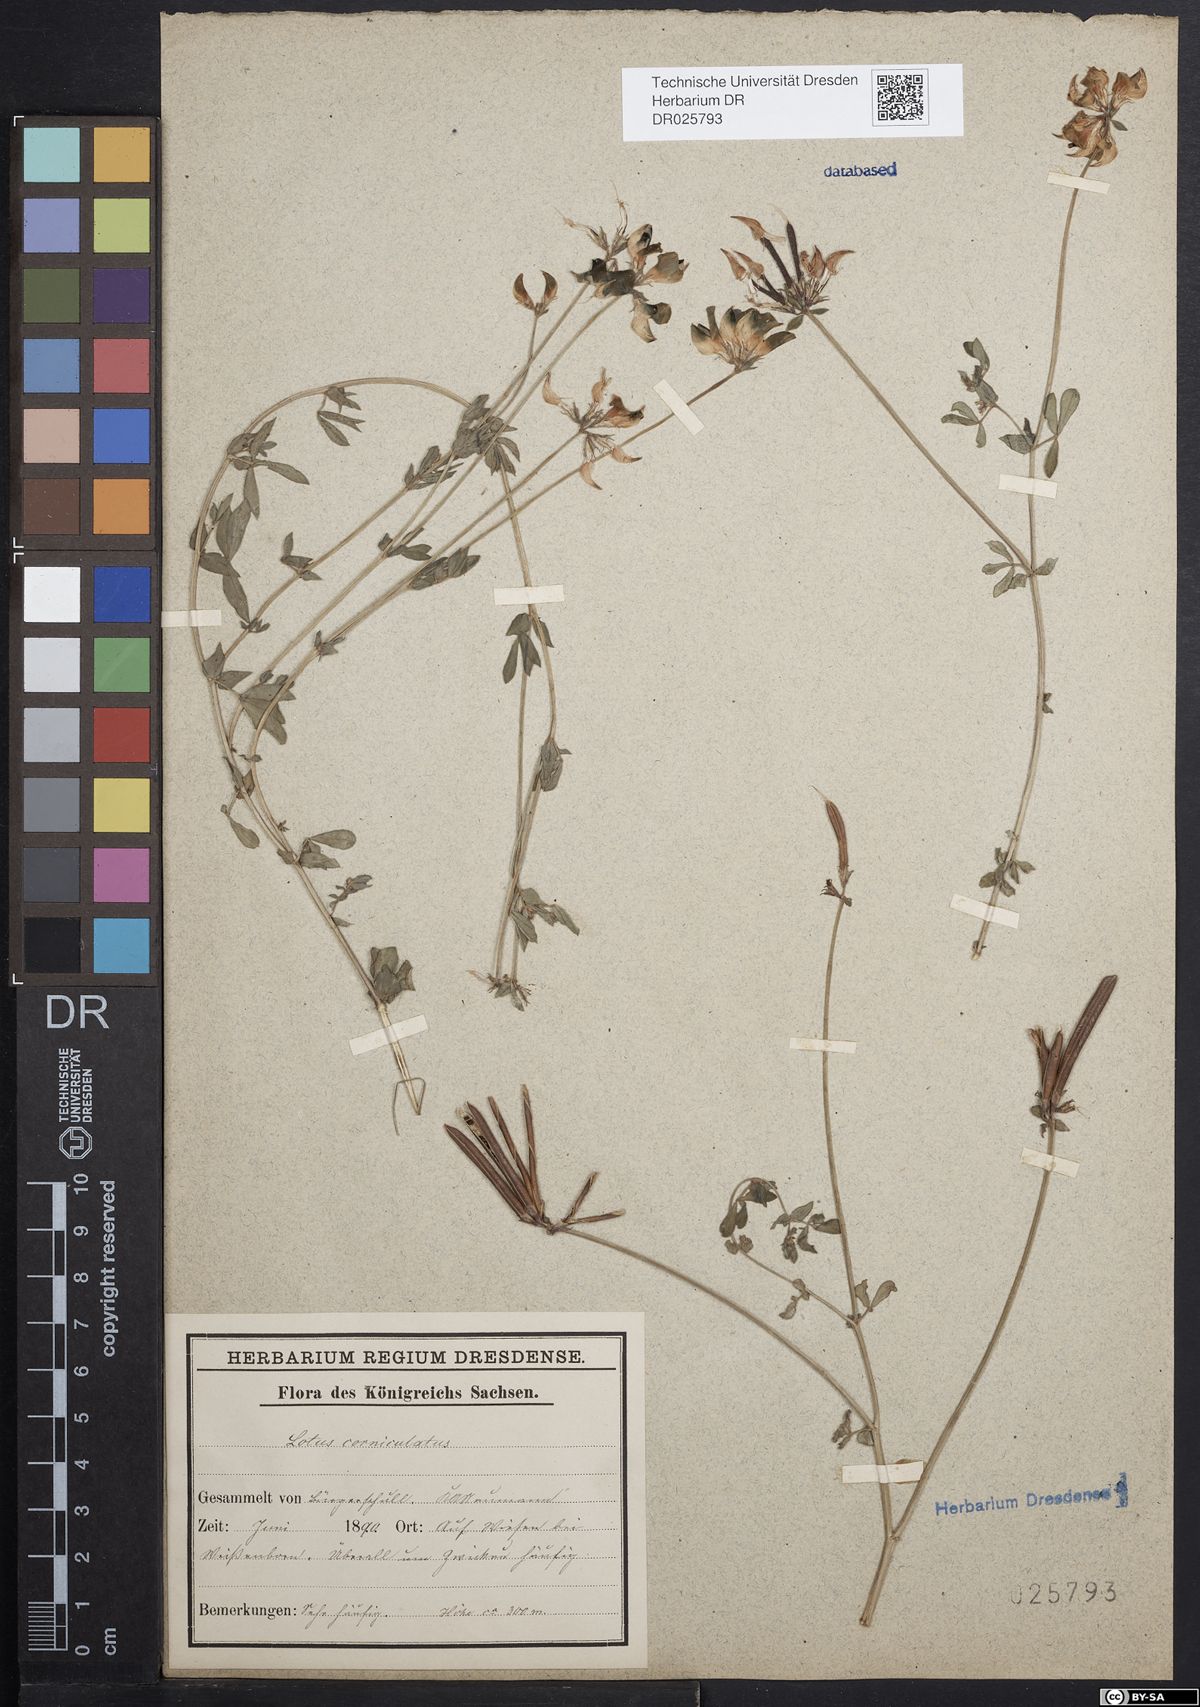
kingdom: Plantae
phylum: Tracheophyta
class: Magnoliopsida
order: Fabales
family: Fabaceae
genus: Lotus
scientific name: Lotus corniculatus
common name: Common bird's-foot-trefoil
